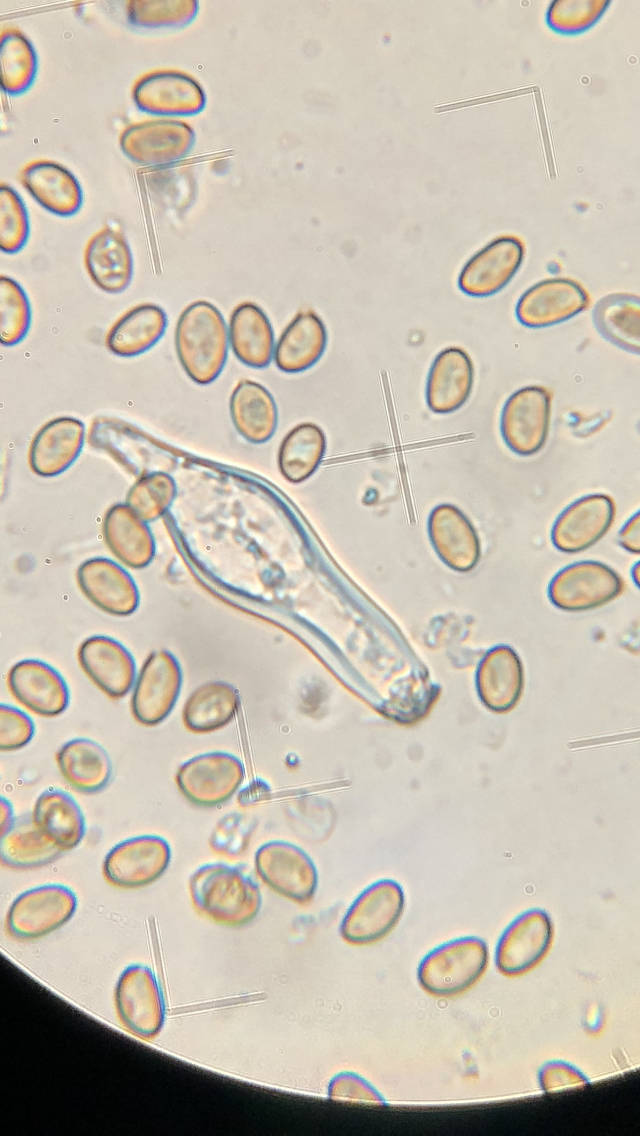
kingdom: Fungi
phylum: Basidiomycota
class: Agaricomycetes
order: Agaricales
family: Inocybaceae
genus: Inocybe
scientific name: Inocybe
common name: almindelig trævlhat
